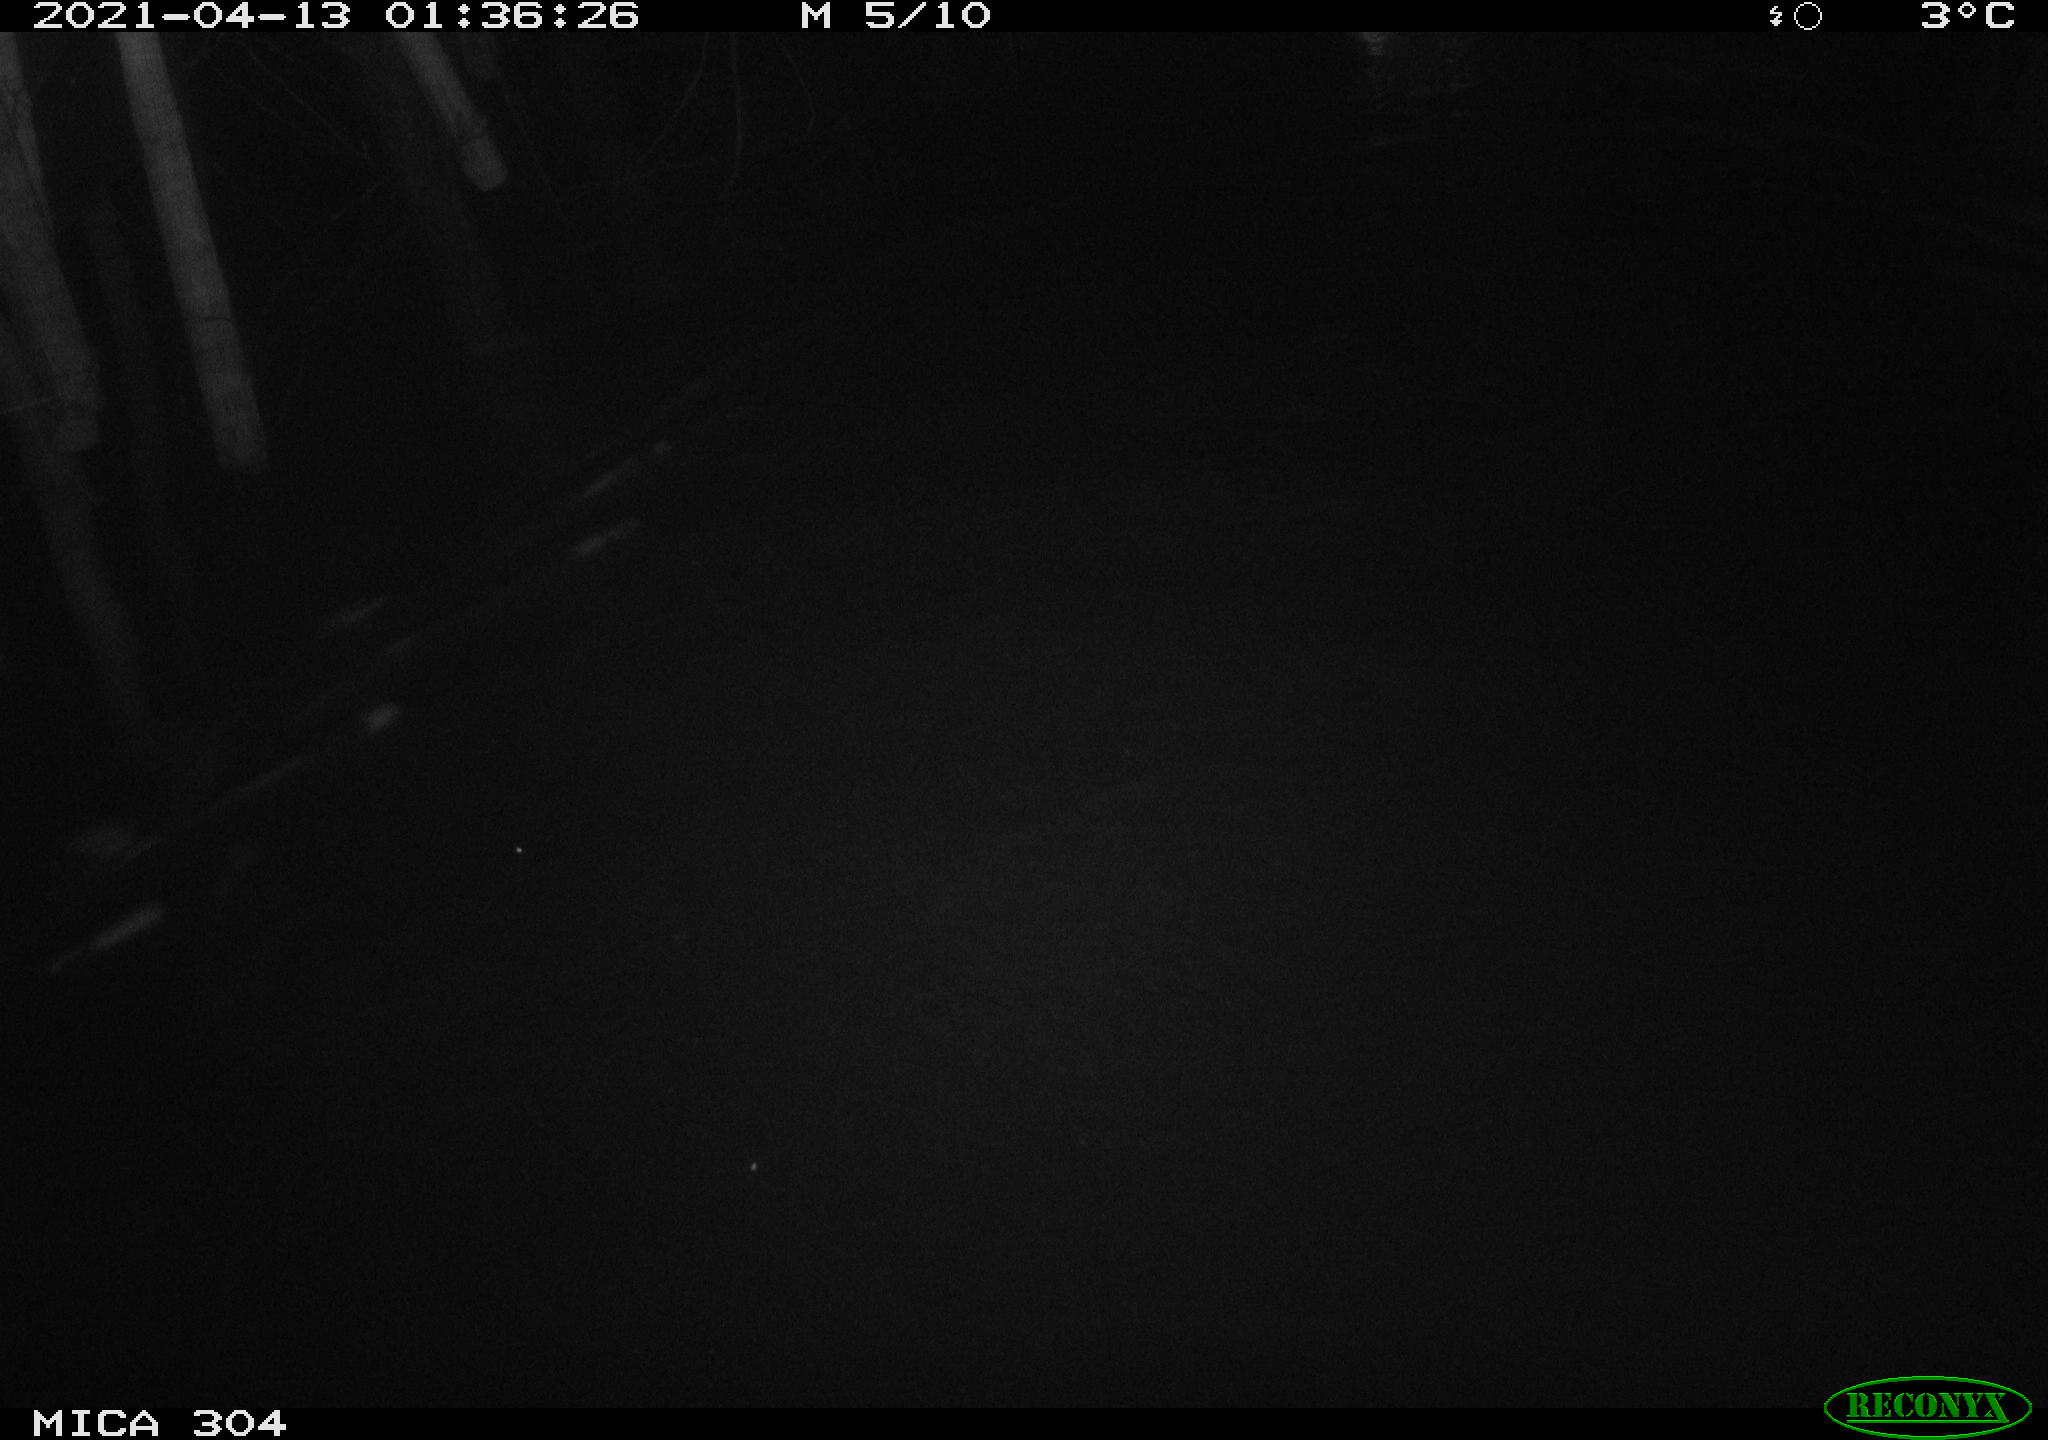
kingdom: Animalia
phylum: Chordata
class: Aves
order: Anseriformes
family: Anatidae
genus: Anas
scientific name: Anas
